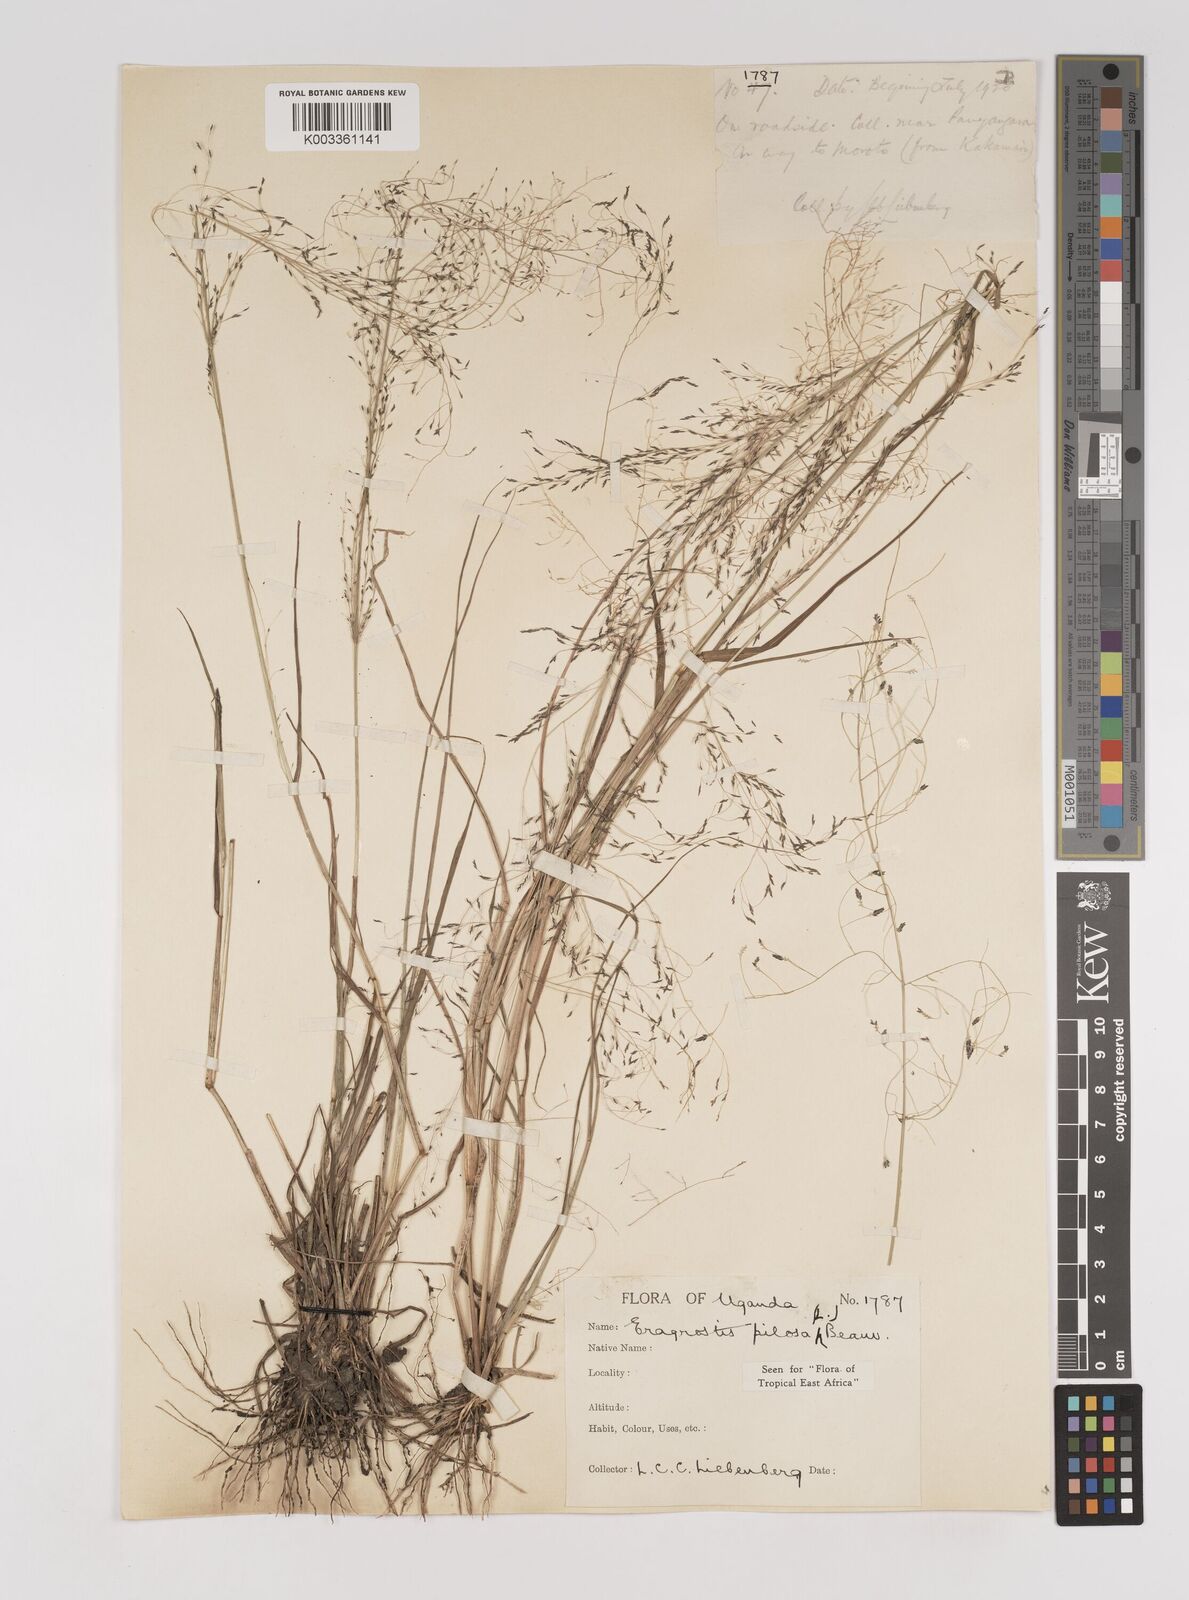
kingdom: Plantae
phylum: Tracheophyta
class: Liliopsida
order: Poales
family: Poaceae
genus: Eragrostis
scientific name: Eragrostis pilosa
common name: Indian lovegrass
